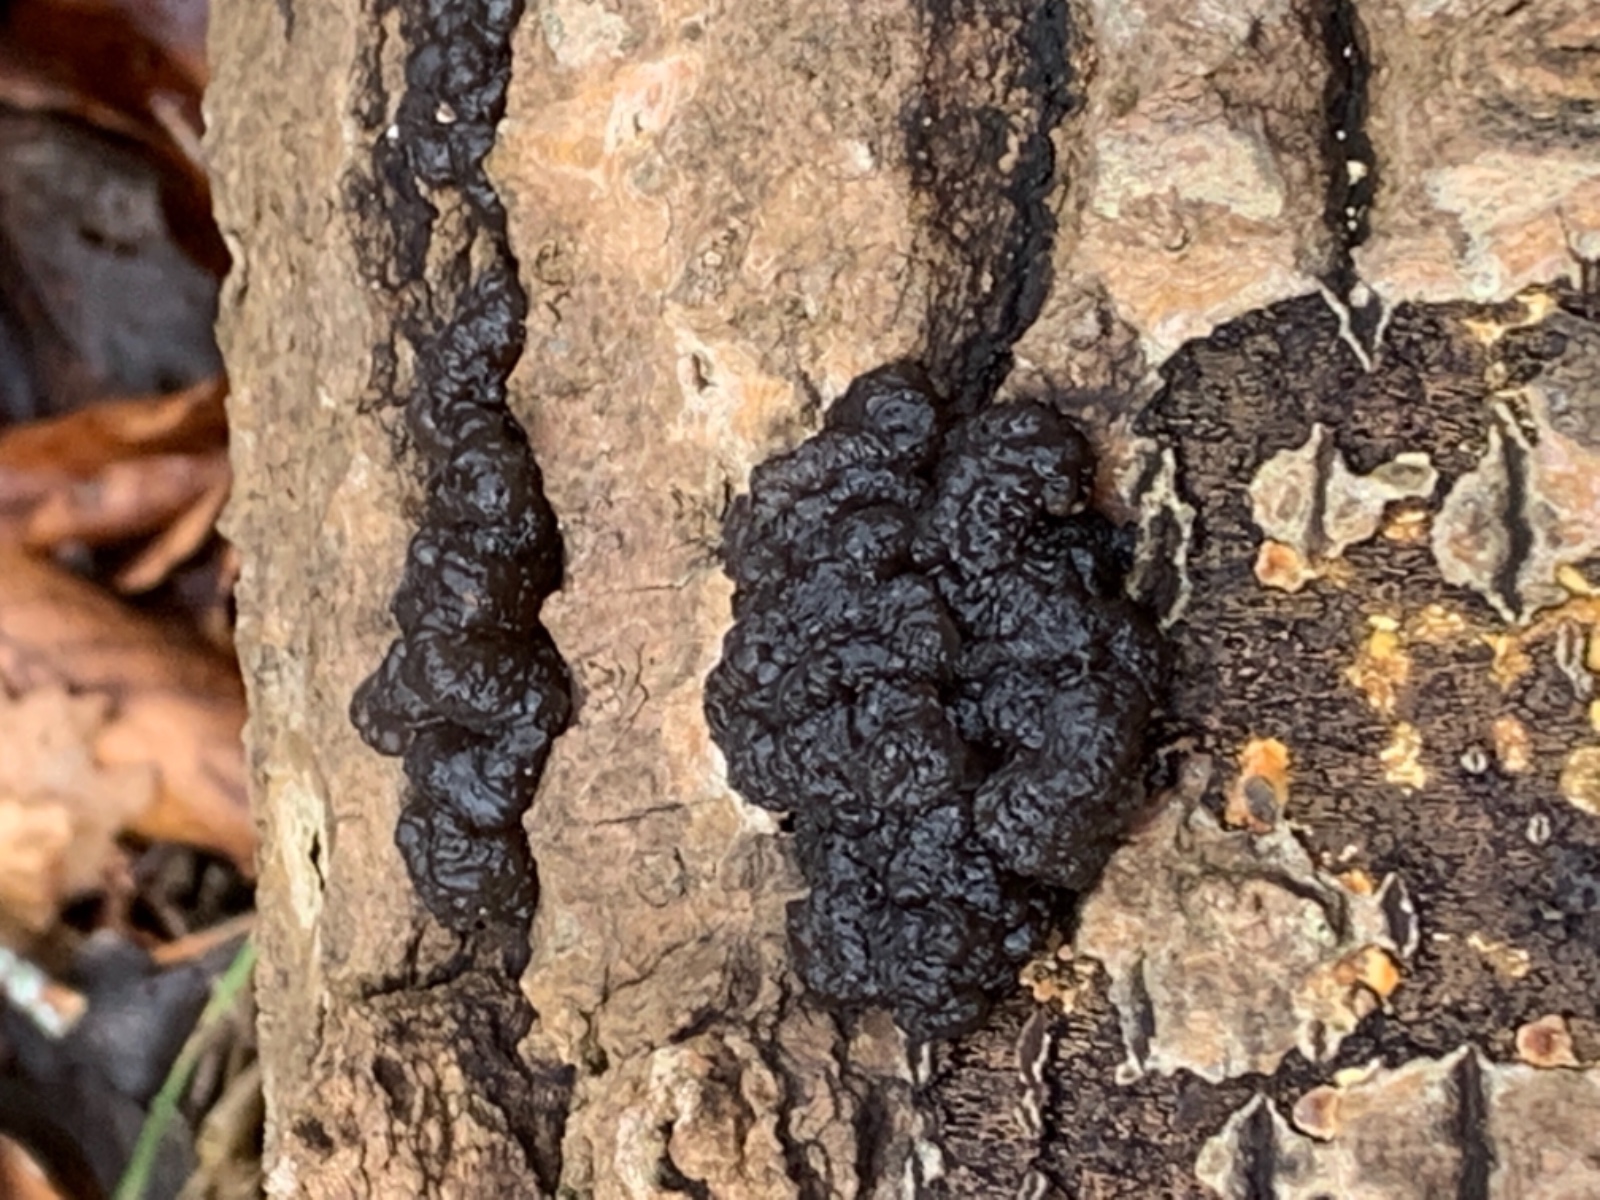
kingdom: Fungi
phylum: Basidiomycota
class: Agaricomycetes
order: Auriculariales
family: Auriculariaceae
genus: Exidia
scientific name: Exidia nigricans
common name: almindelig bævretop
